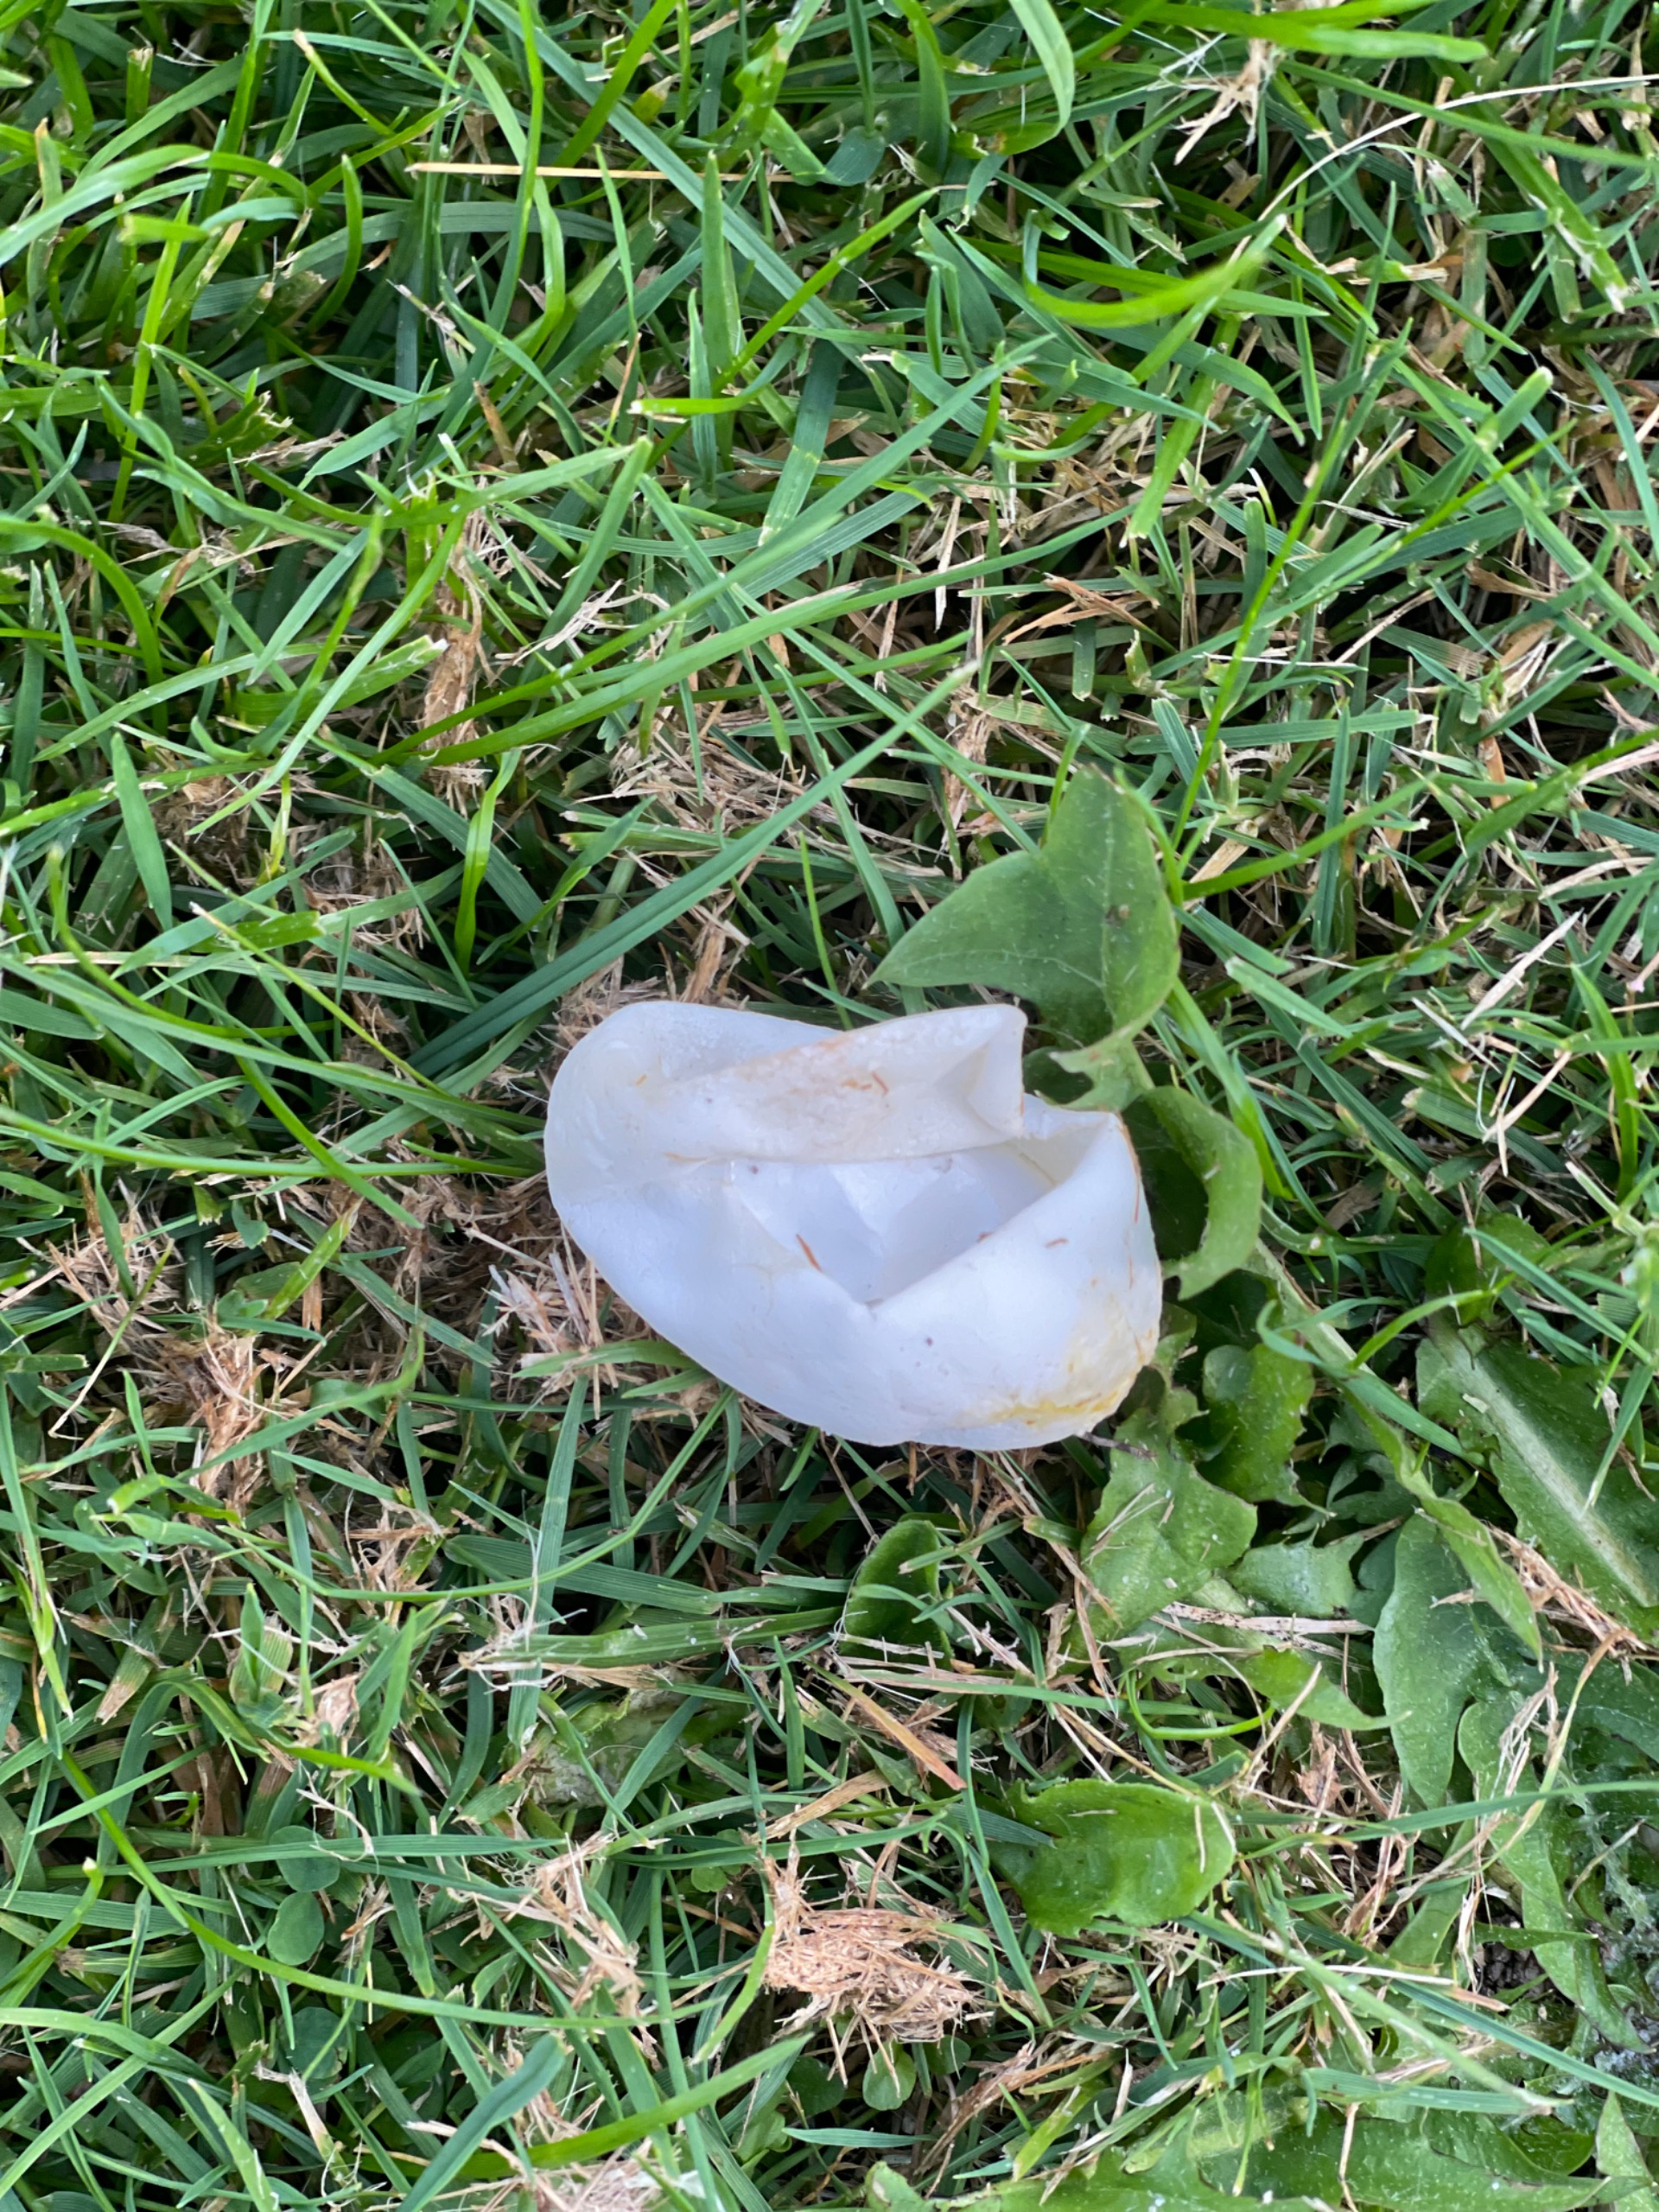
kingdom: Animalia
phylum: Chordata
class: Squamata
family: Colubridae
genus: Natrix
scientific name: Natrix natrix
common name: Snog
